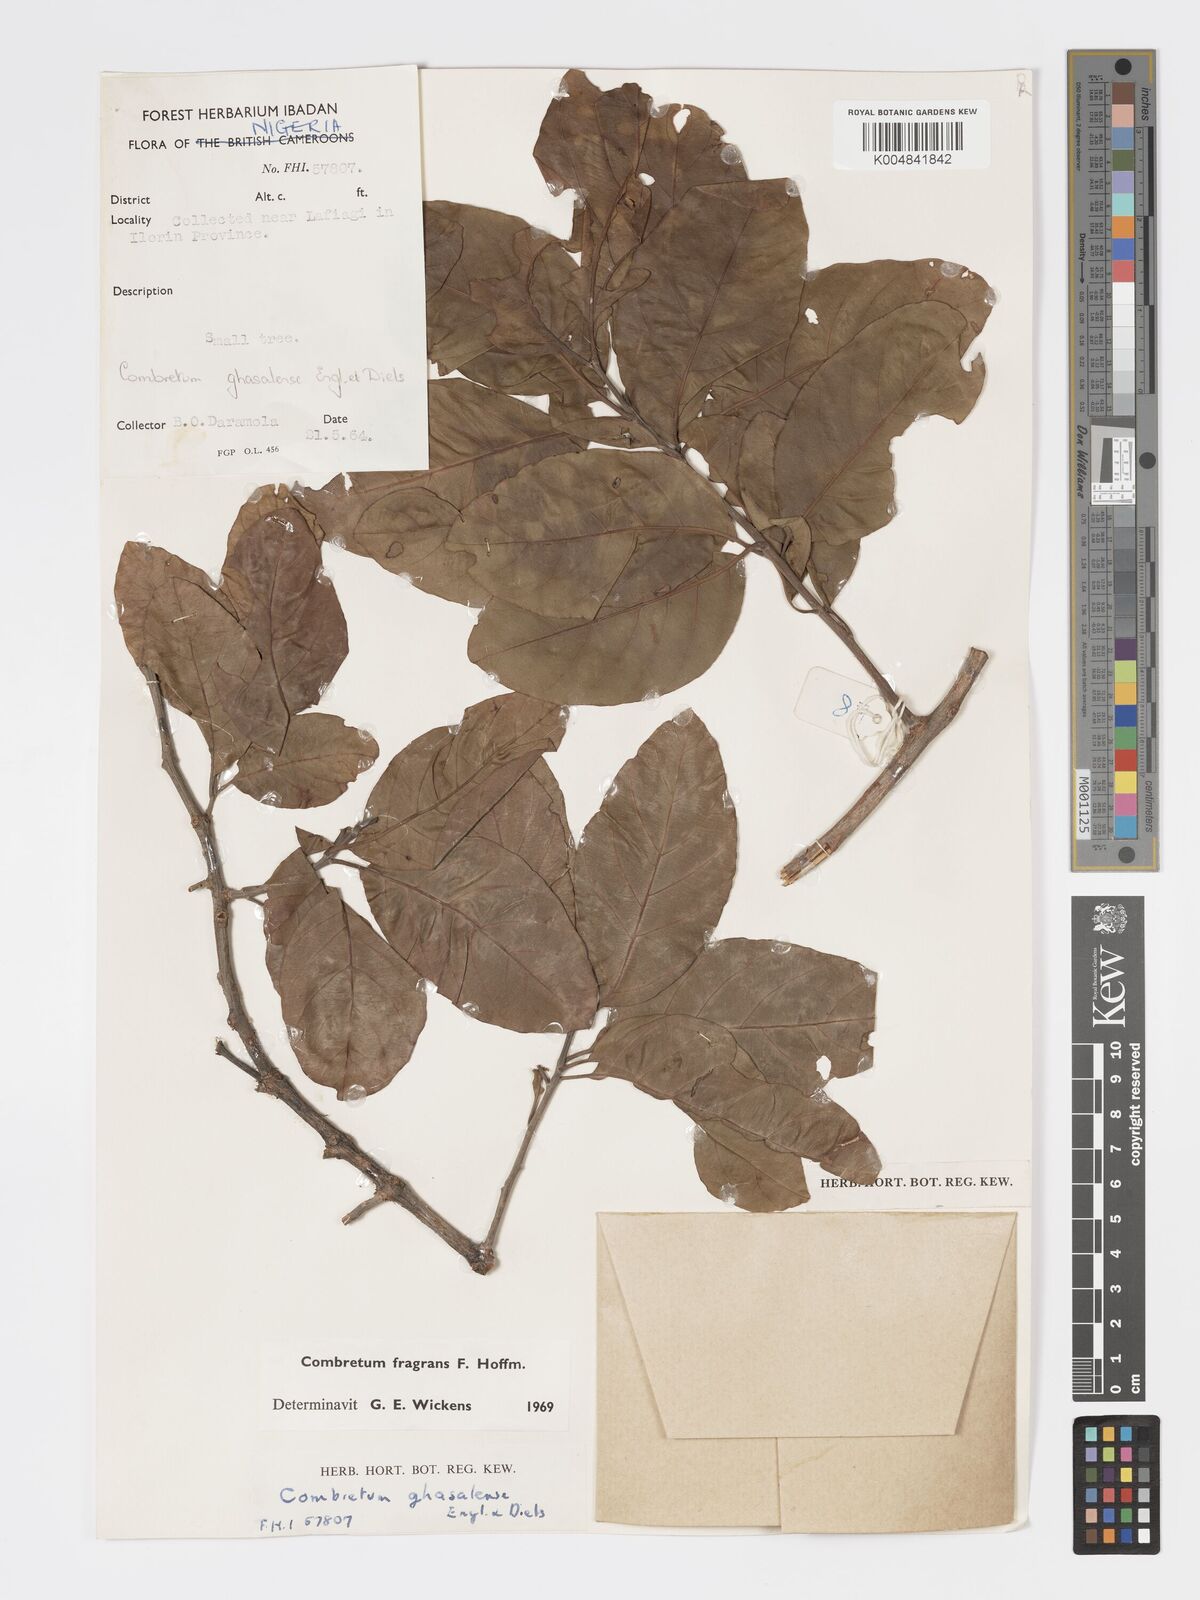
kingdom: Plantae
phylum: Tracheophyta
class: Magnoliopsida
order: Myrtales
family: Combretaceae
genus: Combretum
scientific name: Combretum adenogonium
